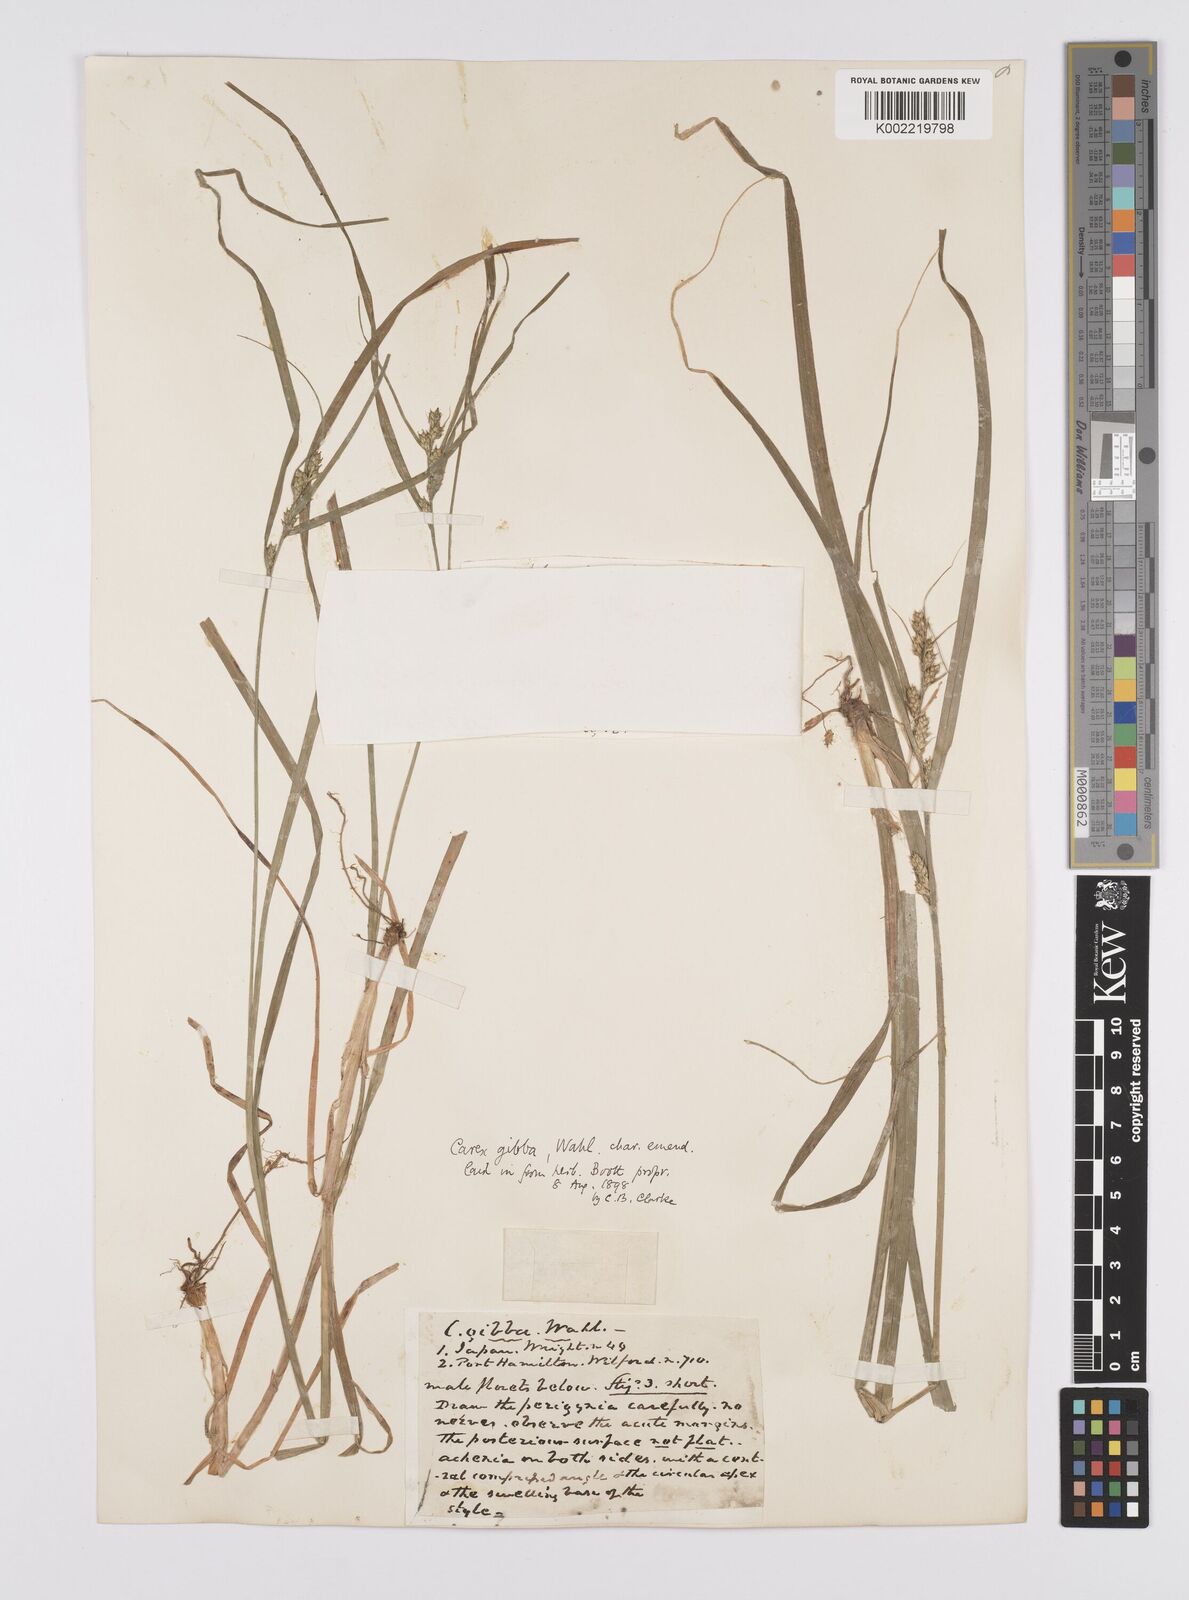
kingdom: Plantae
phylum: Tracheophyta
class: Liliopsida
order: Poales
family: Cyperaceae
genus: Carex
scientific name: Carex gibba
